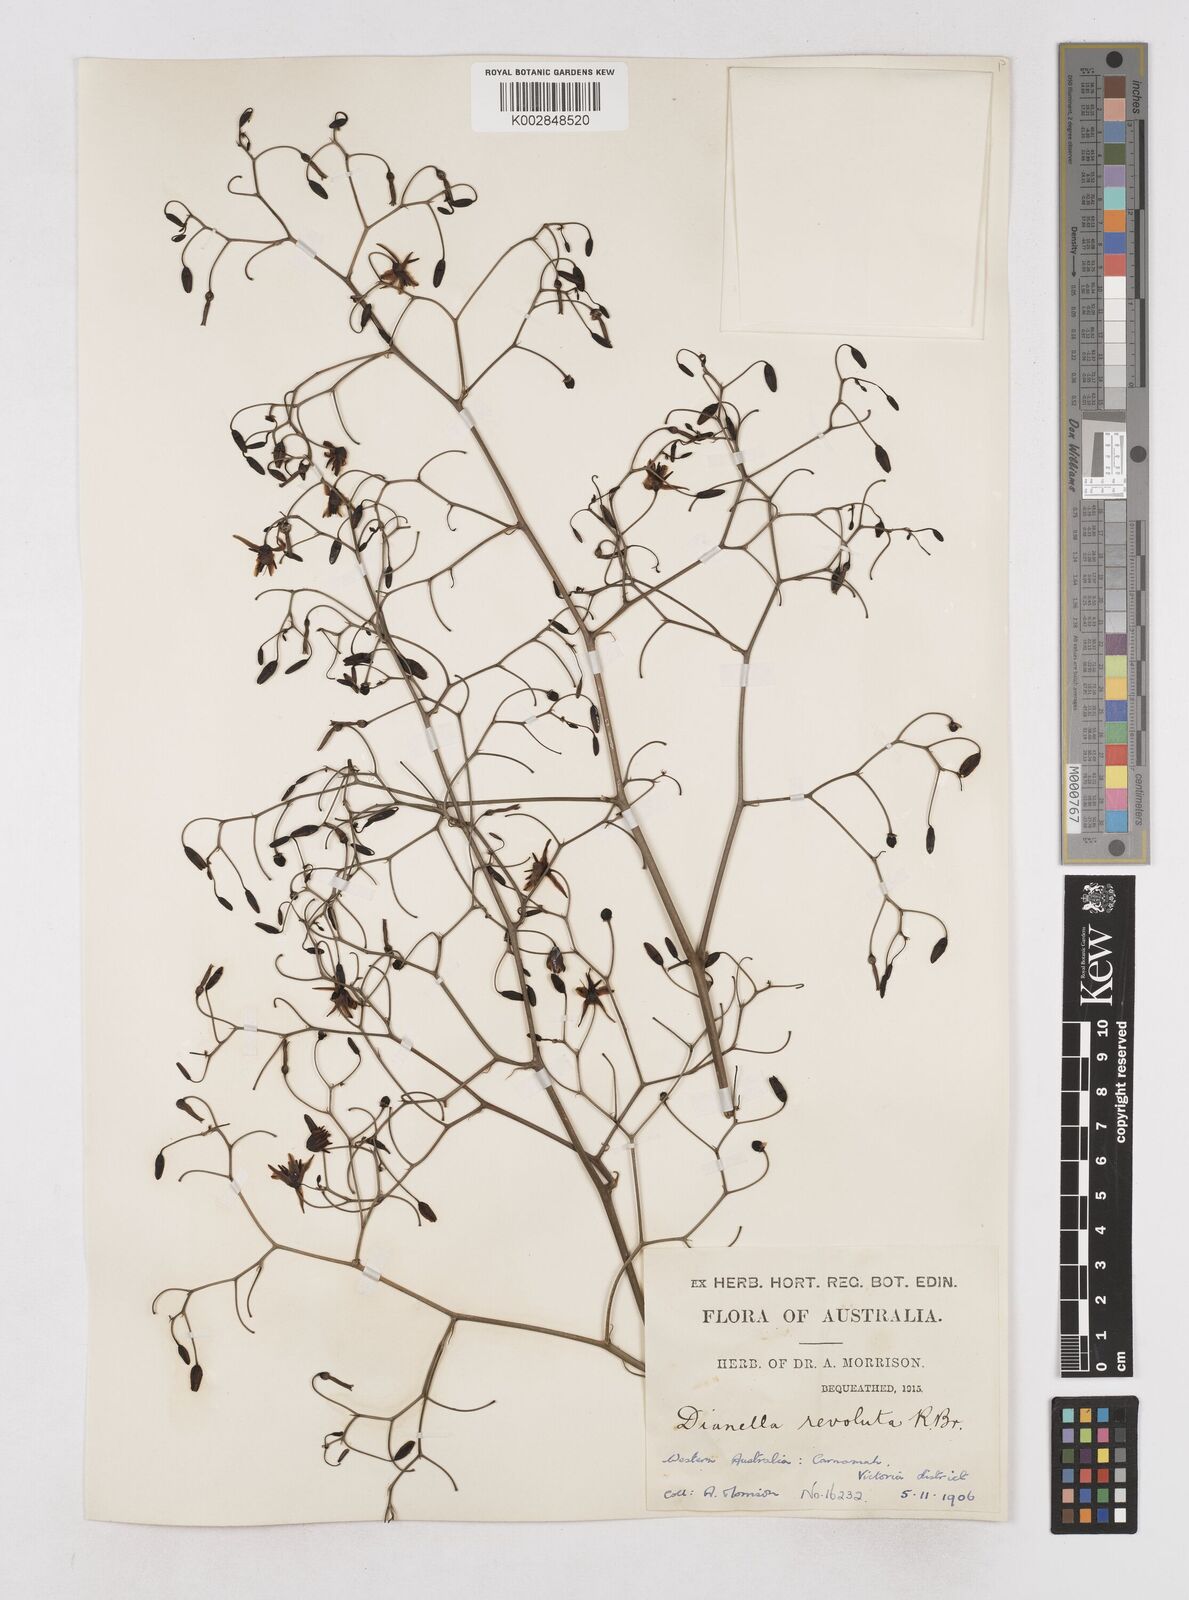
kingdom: Plantae
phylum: Tracheophyta
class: Liliopsida
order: Asparagales
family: Asphodelaceae
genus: Dianella
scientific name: Dianella revoluta
